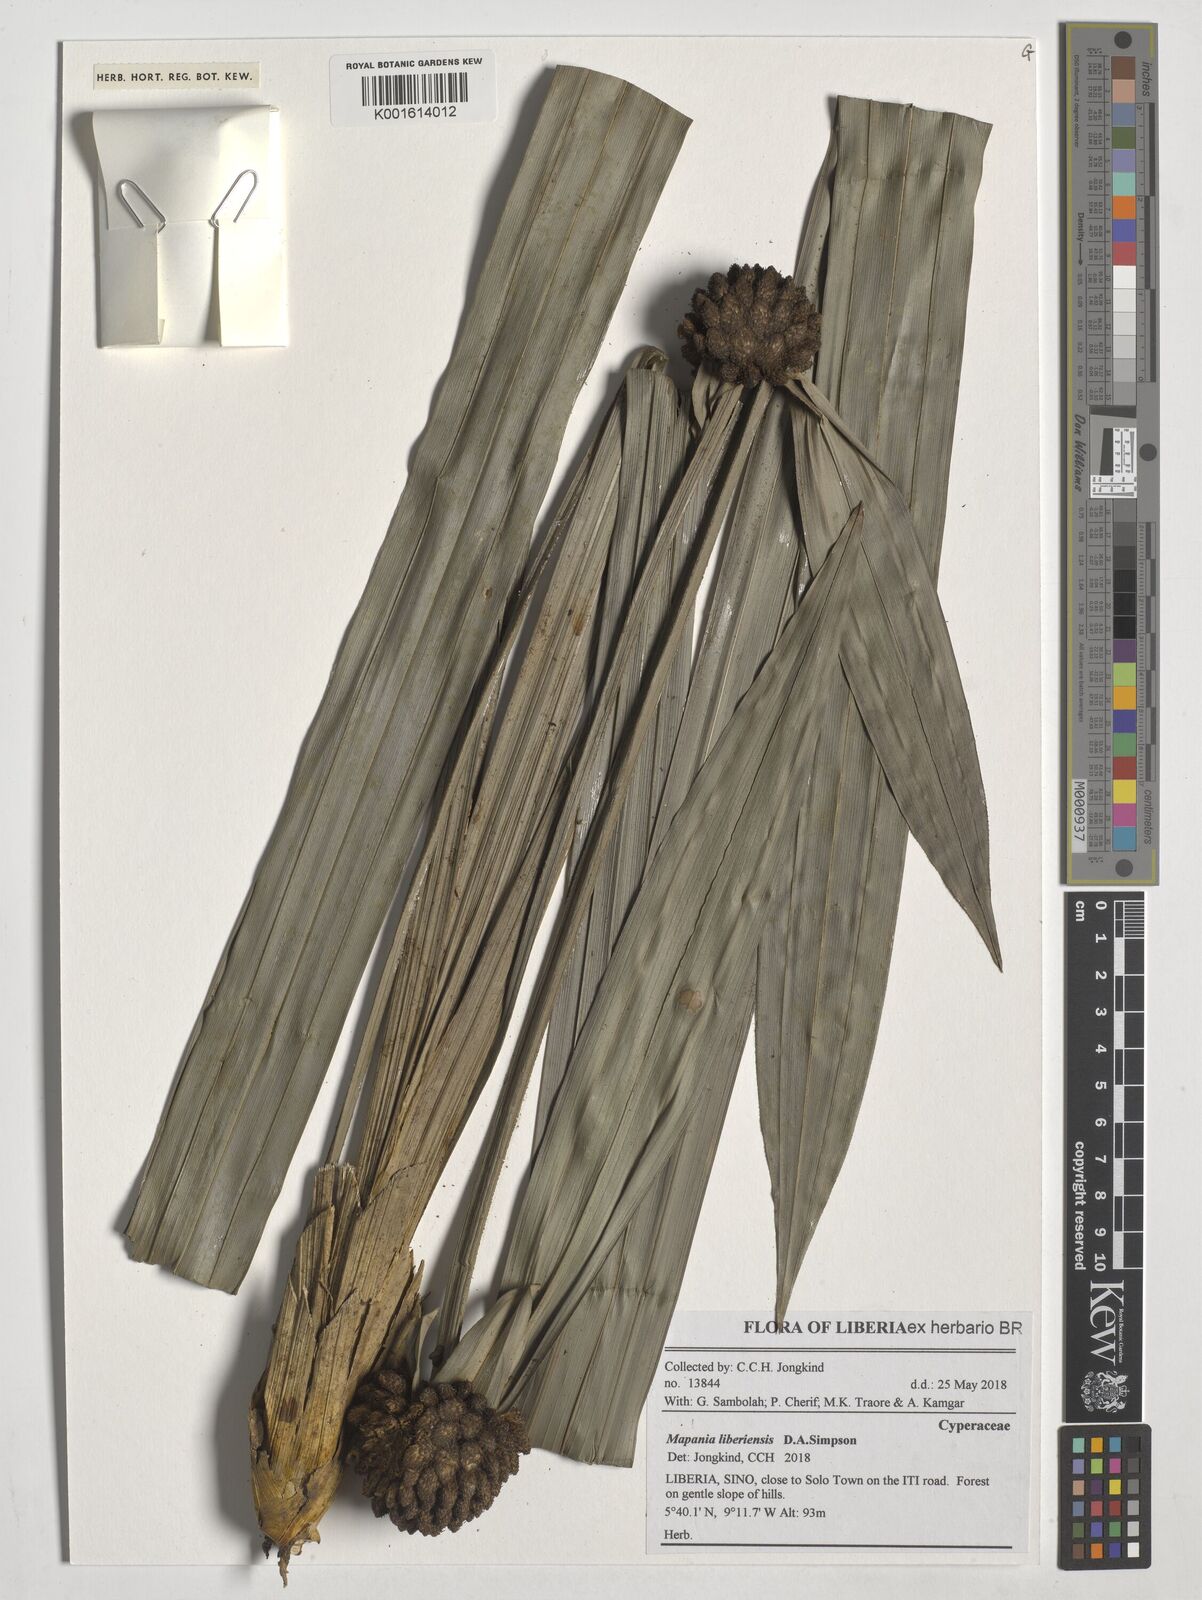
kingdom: Plantae
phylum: Tracheophyta
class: Liliopsida
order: Poales
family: Cyperaceae
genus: Mapania
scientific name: Mapania liberiensis
